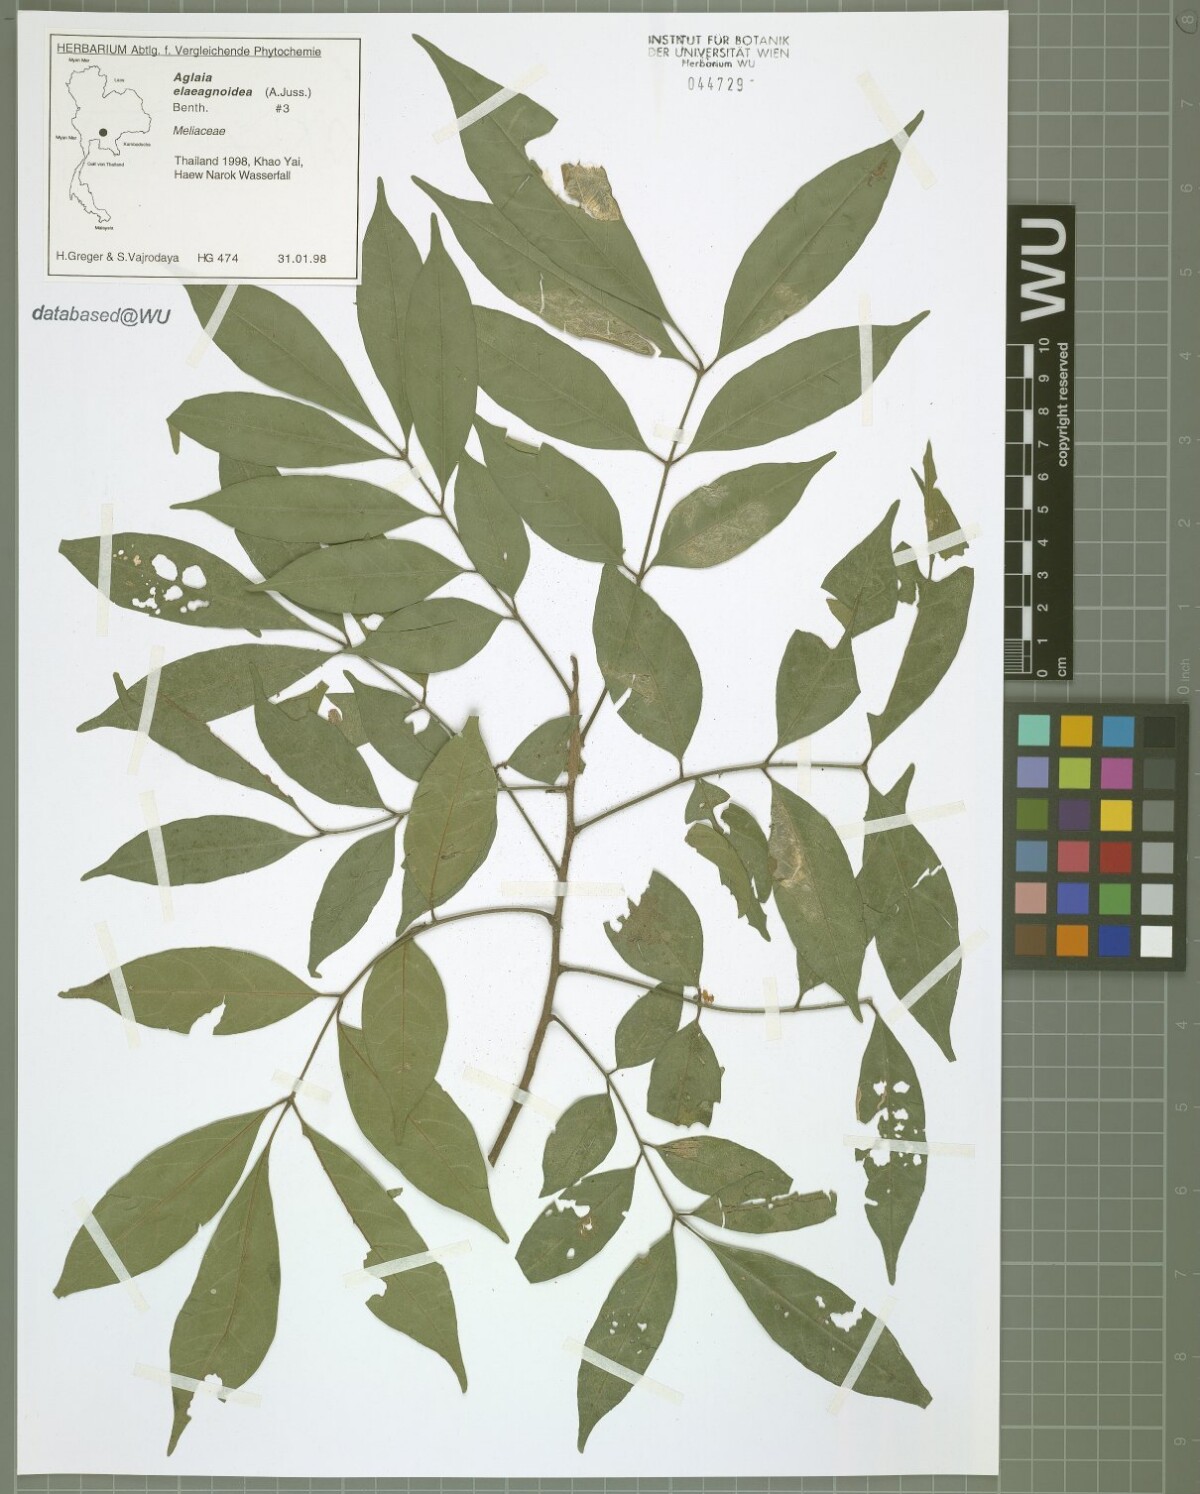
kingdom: Plantae
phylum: Tracheophyta
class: Magnoliopsida
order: Sapindales
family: Meliaceae
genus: Aglaia
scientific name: Aglaia elaeagnoidea
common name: Droopyleaf
